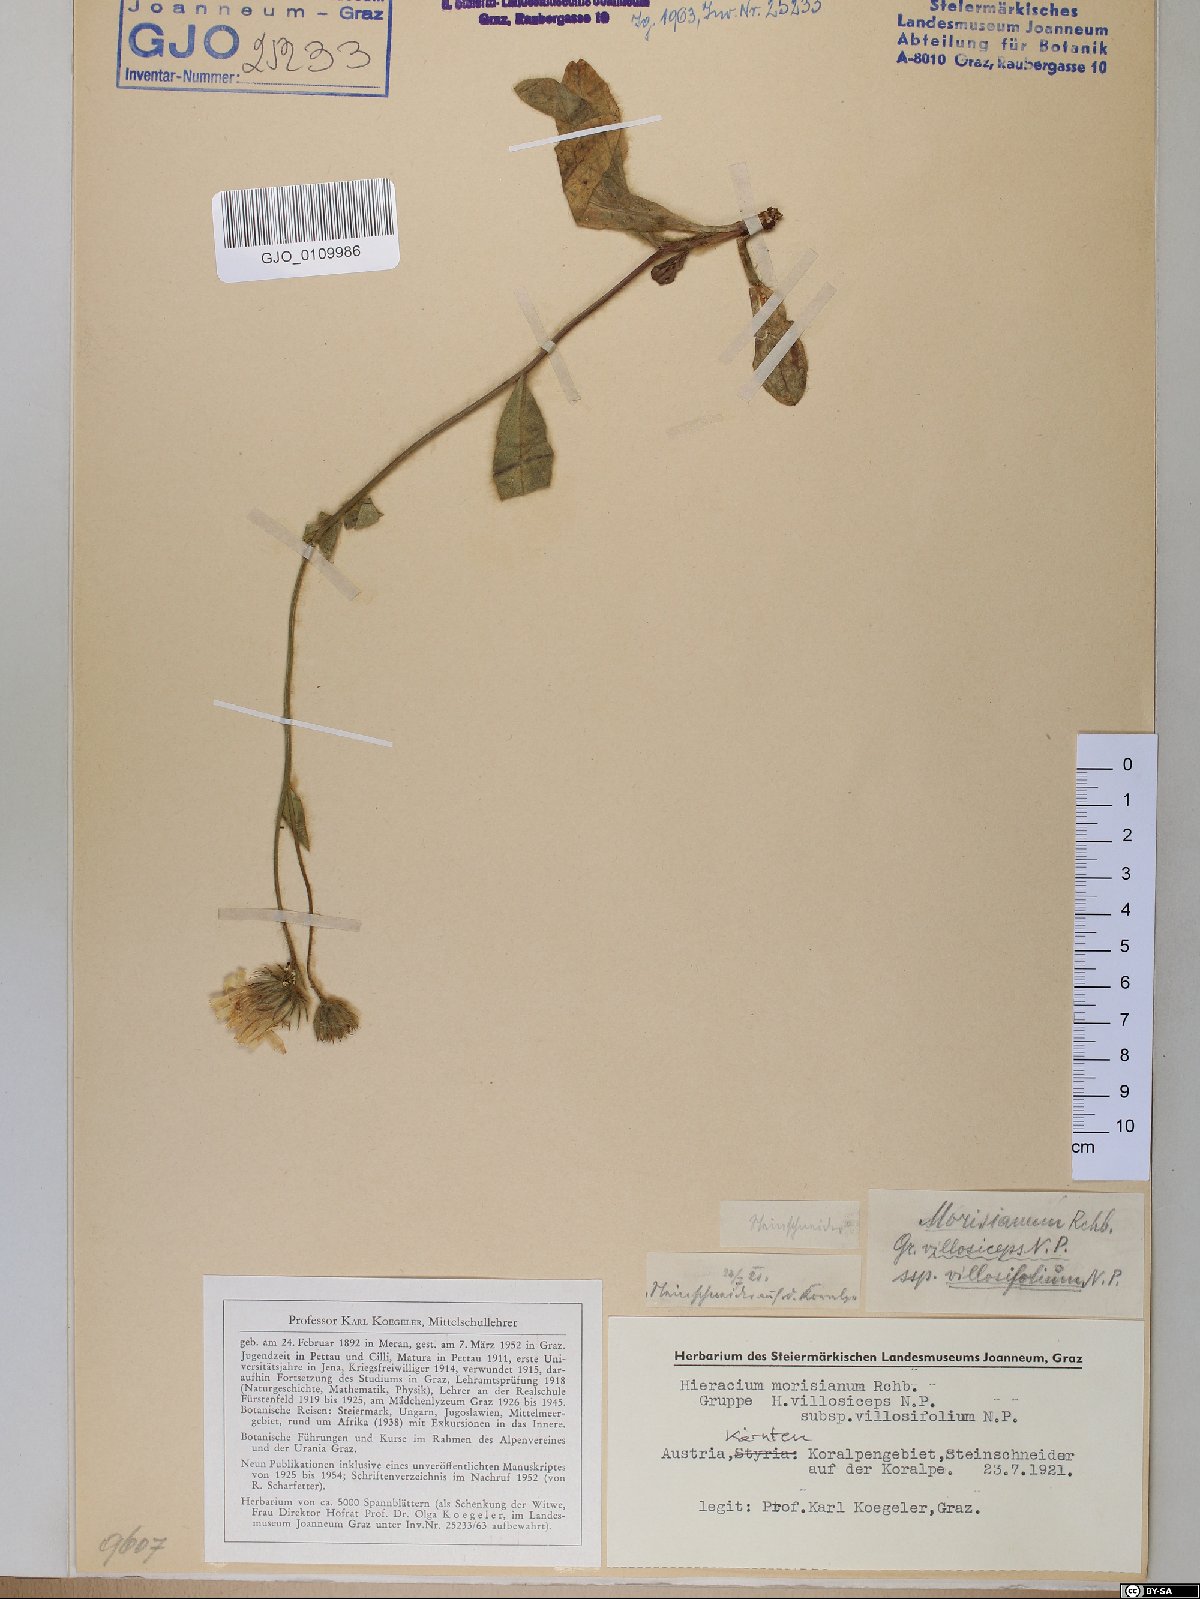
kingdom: Plantae
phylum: Tracheophyta
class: Magnoliopsida
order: Asterales
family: Asteraceae
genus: Hieracium
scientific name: Hieracium pilosum
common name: Fimbriate-pitted hawkweed
